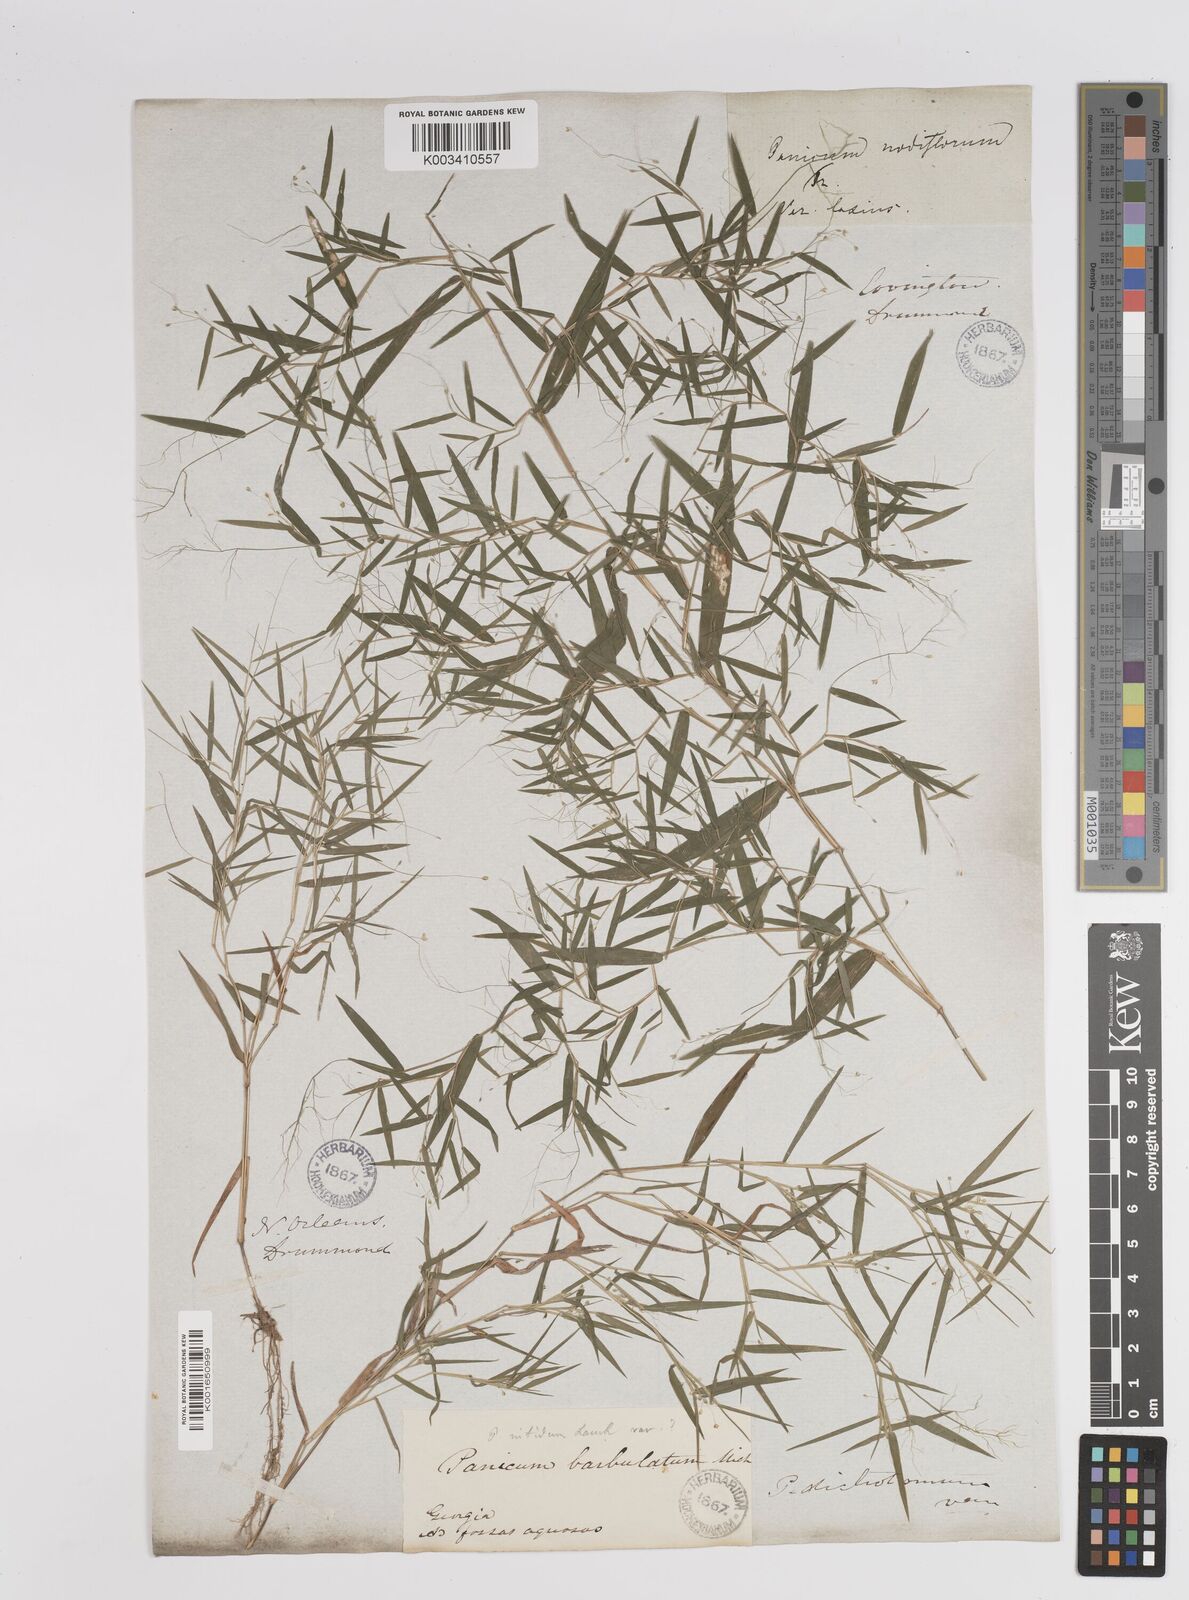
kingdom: Plantae
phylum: Tracheophyta
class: Liliopsida
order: Poales
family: Poaceae
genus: Dichanthelium
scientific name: Dichanthelium dichotomum
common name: Cypress panicgrass
